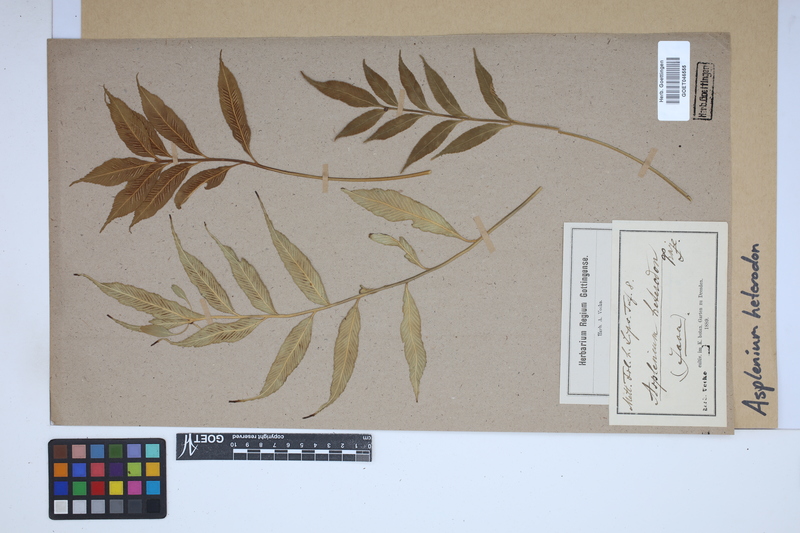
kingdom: Plantae
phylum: Tracheophyta
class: Polypodiopsida
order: Polypodiales
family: Aspleniaceae
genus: Asplenium
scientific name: Asplenium simile
